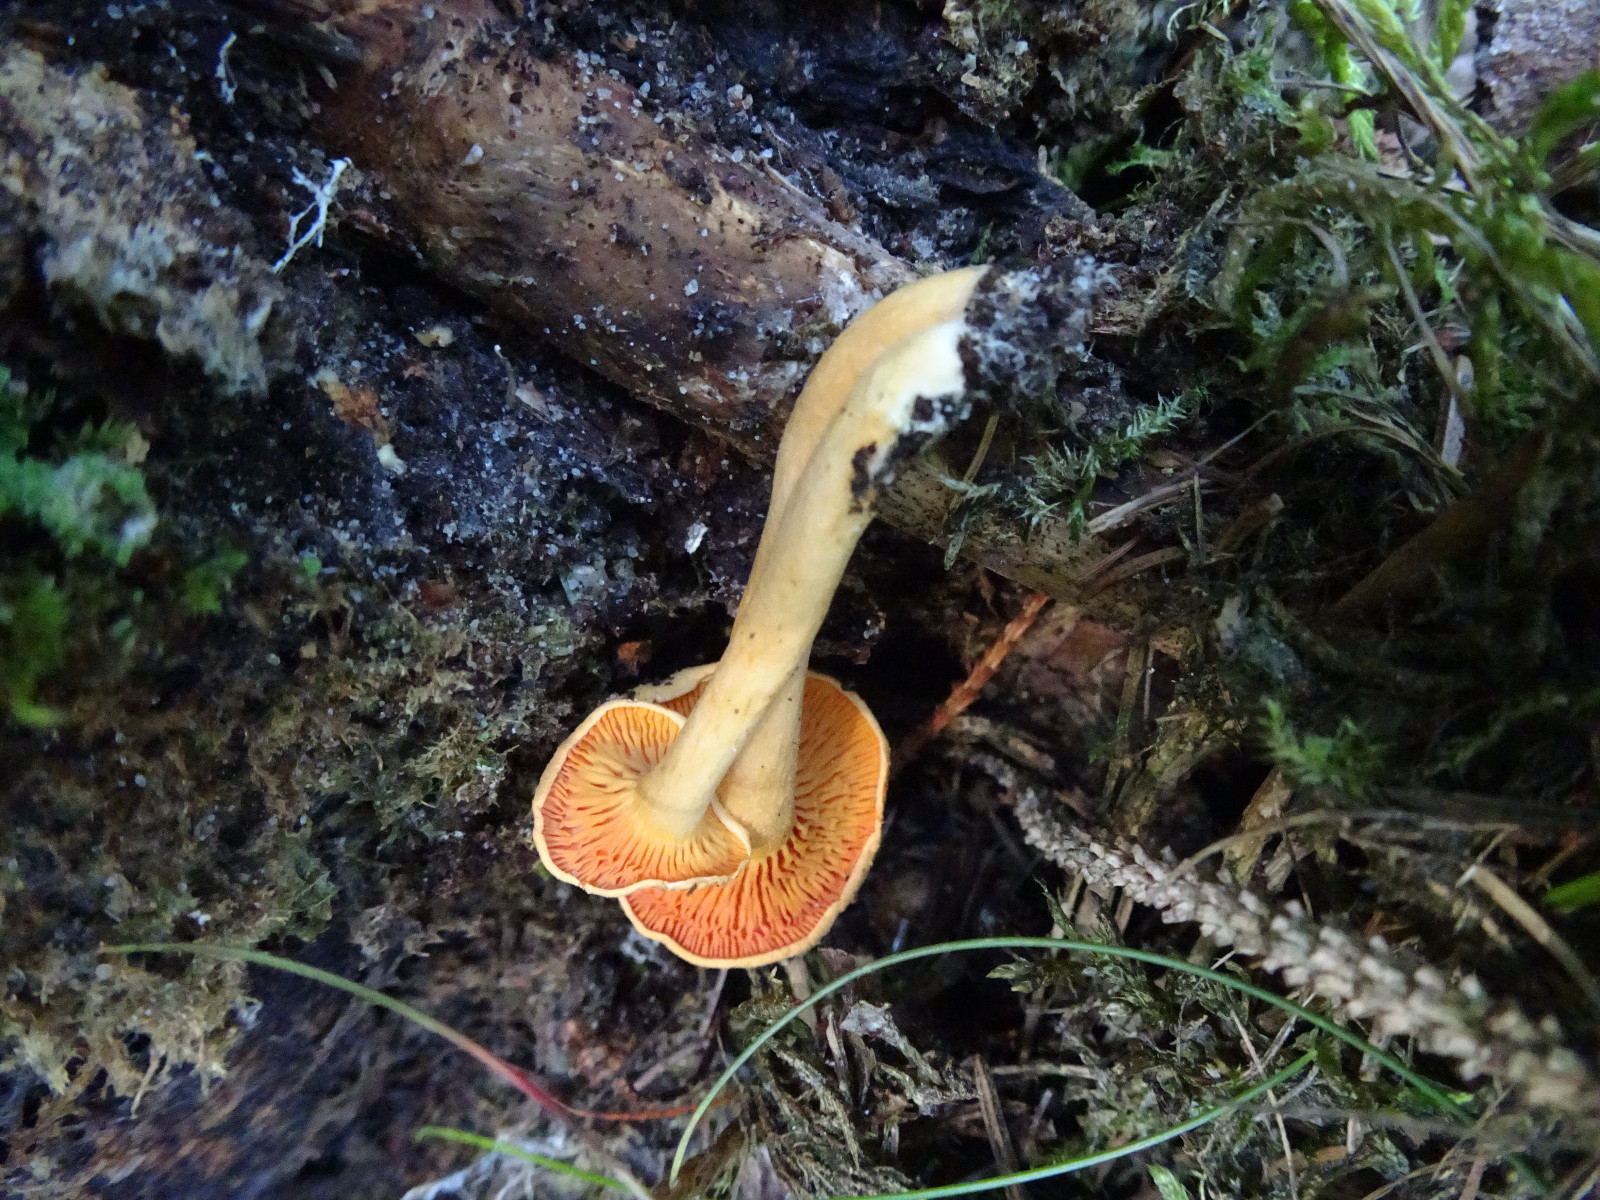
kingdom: Fungi
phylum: Basidiomycota
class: Agaricomycetes
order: Boletales
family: Hygrophoropsidaceae
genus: Hygrophoropsis
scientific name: Hygrophoropsis aurantiaca
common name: almindelig orangekantarel
